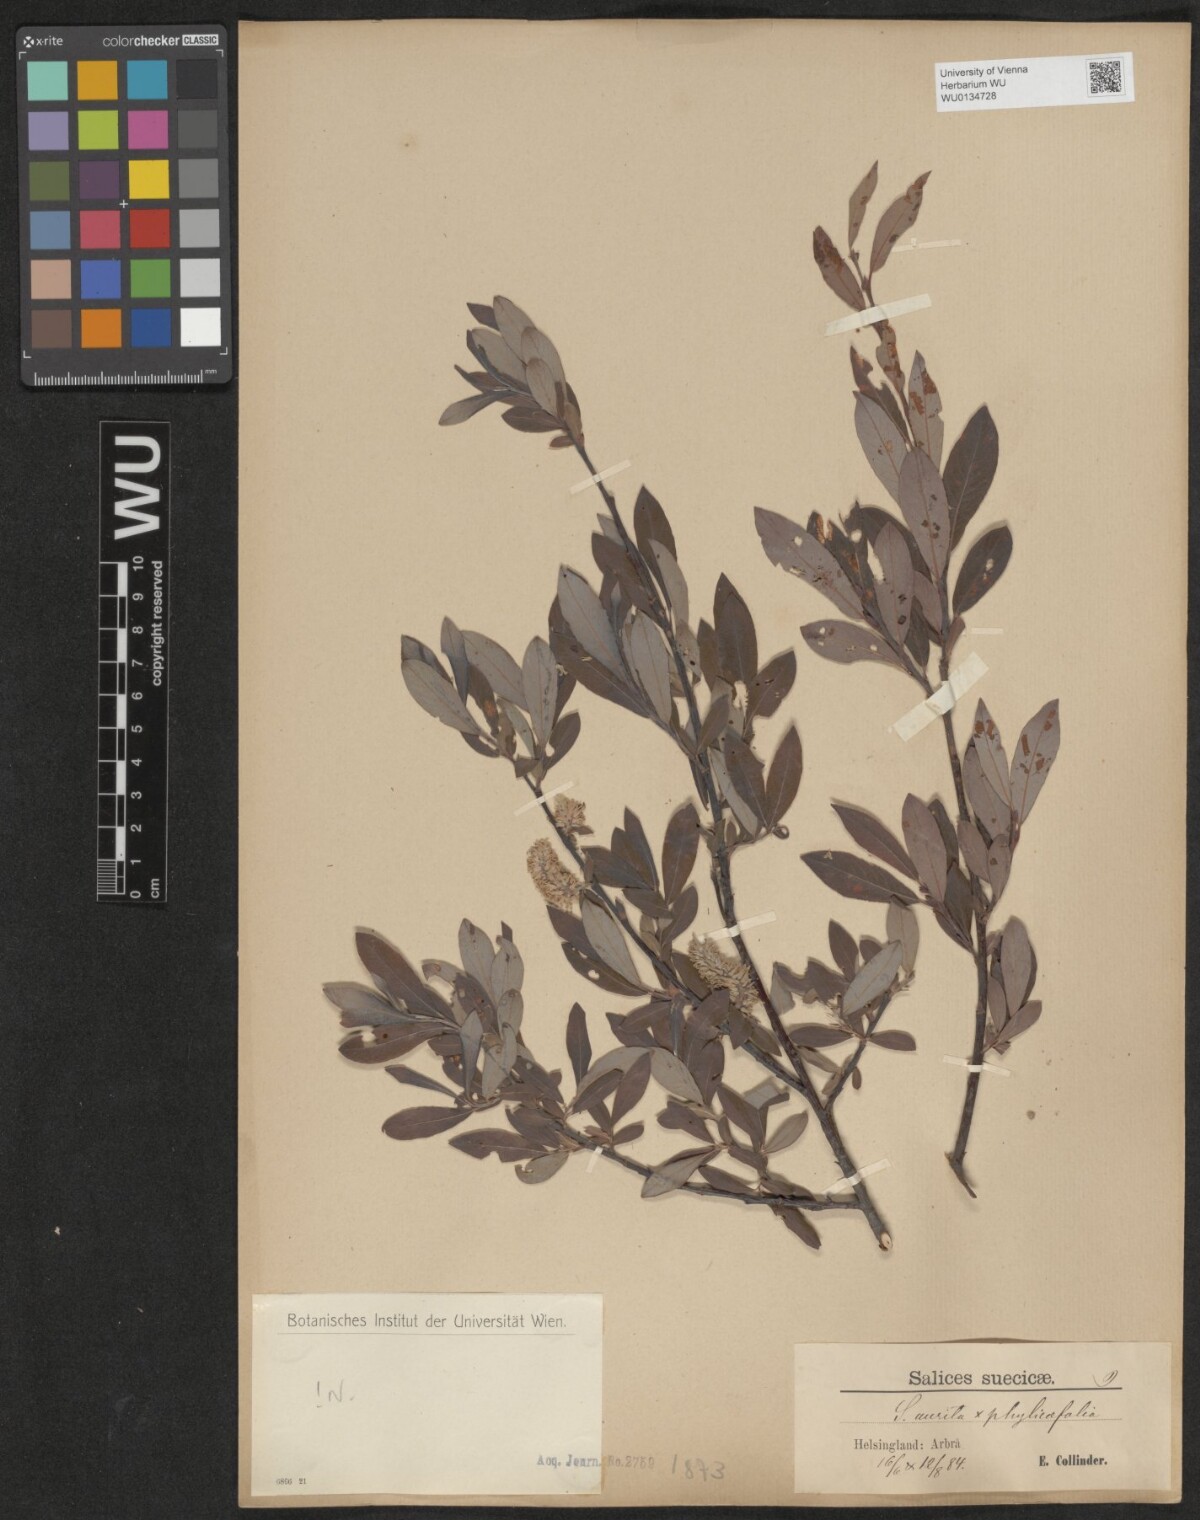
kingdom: Plantae
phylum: Tracheophyta
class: Magnoliopsida
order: Malpighiales
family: Salicaceae
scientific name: Salicaceae
